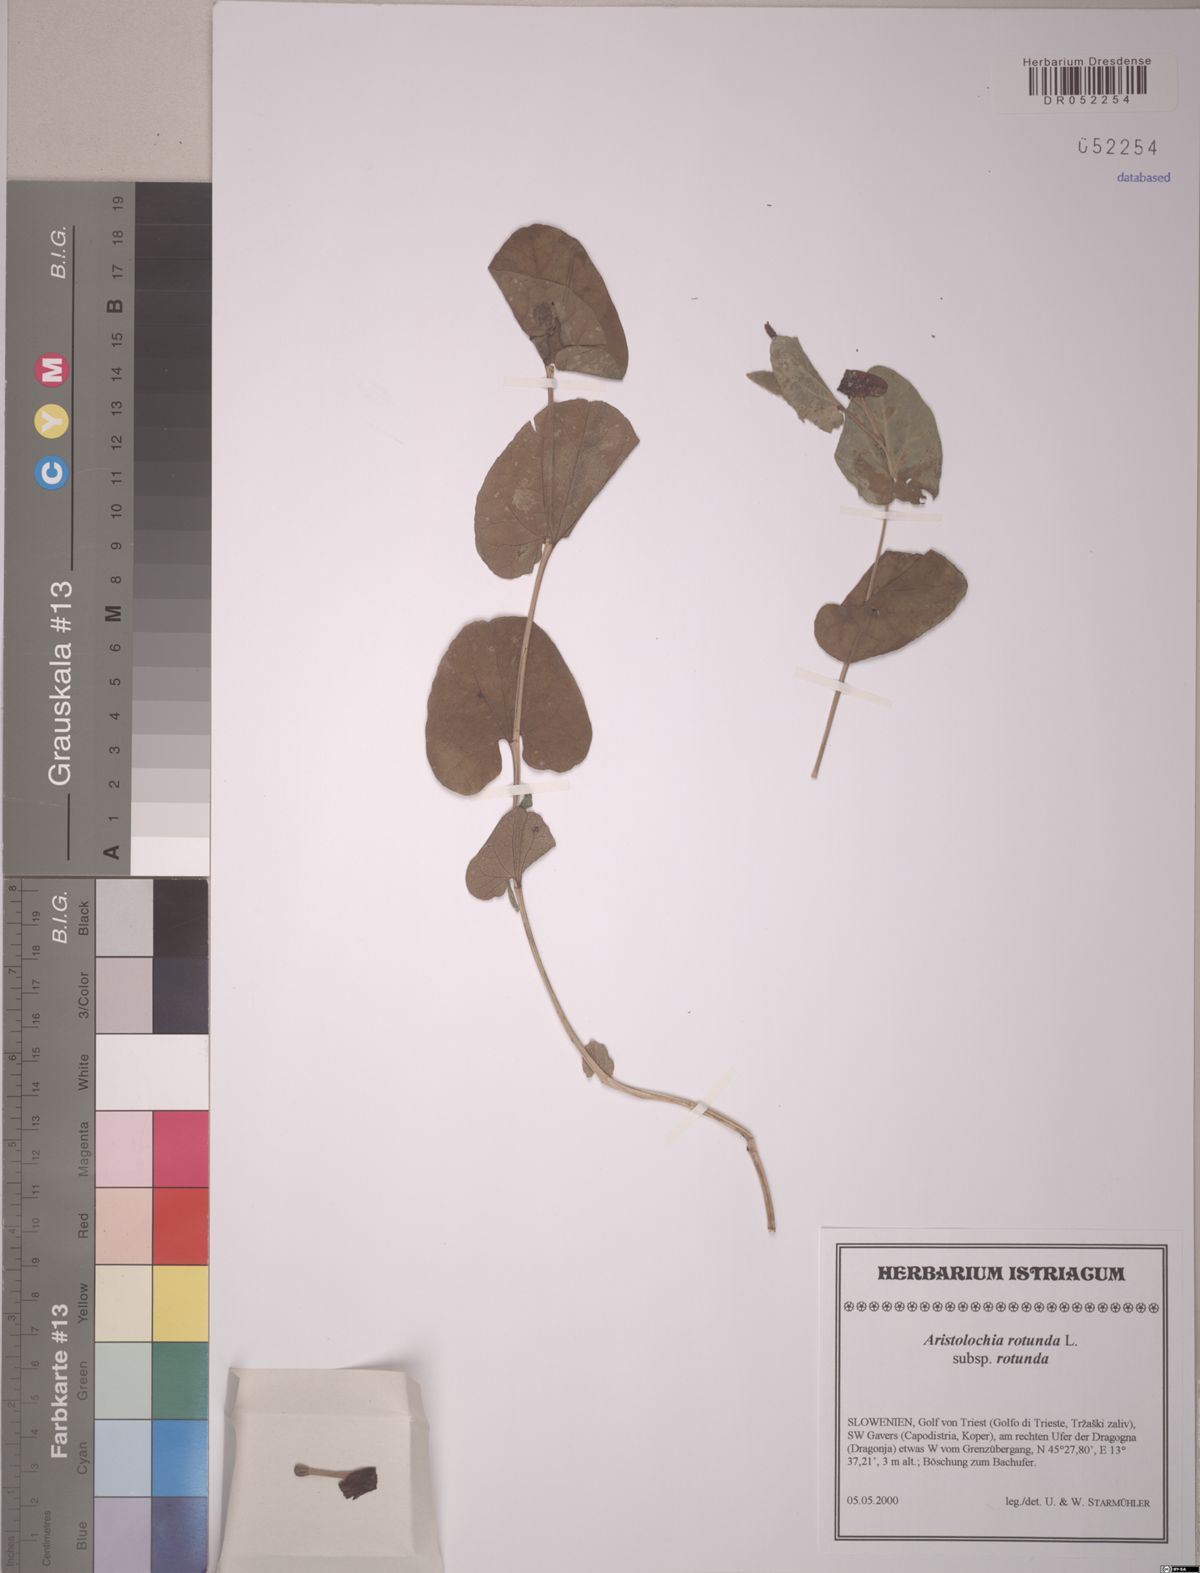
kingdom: Plantae
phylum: Tracheophyta
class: Magnoliopsida
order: Piperales
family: Aristolochiaceae
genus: Aristolochia
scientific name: Aristolochia rotunda
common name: Smearwort
